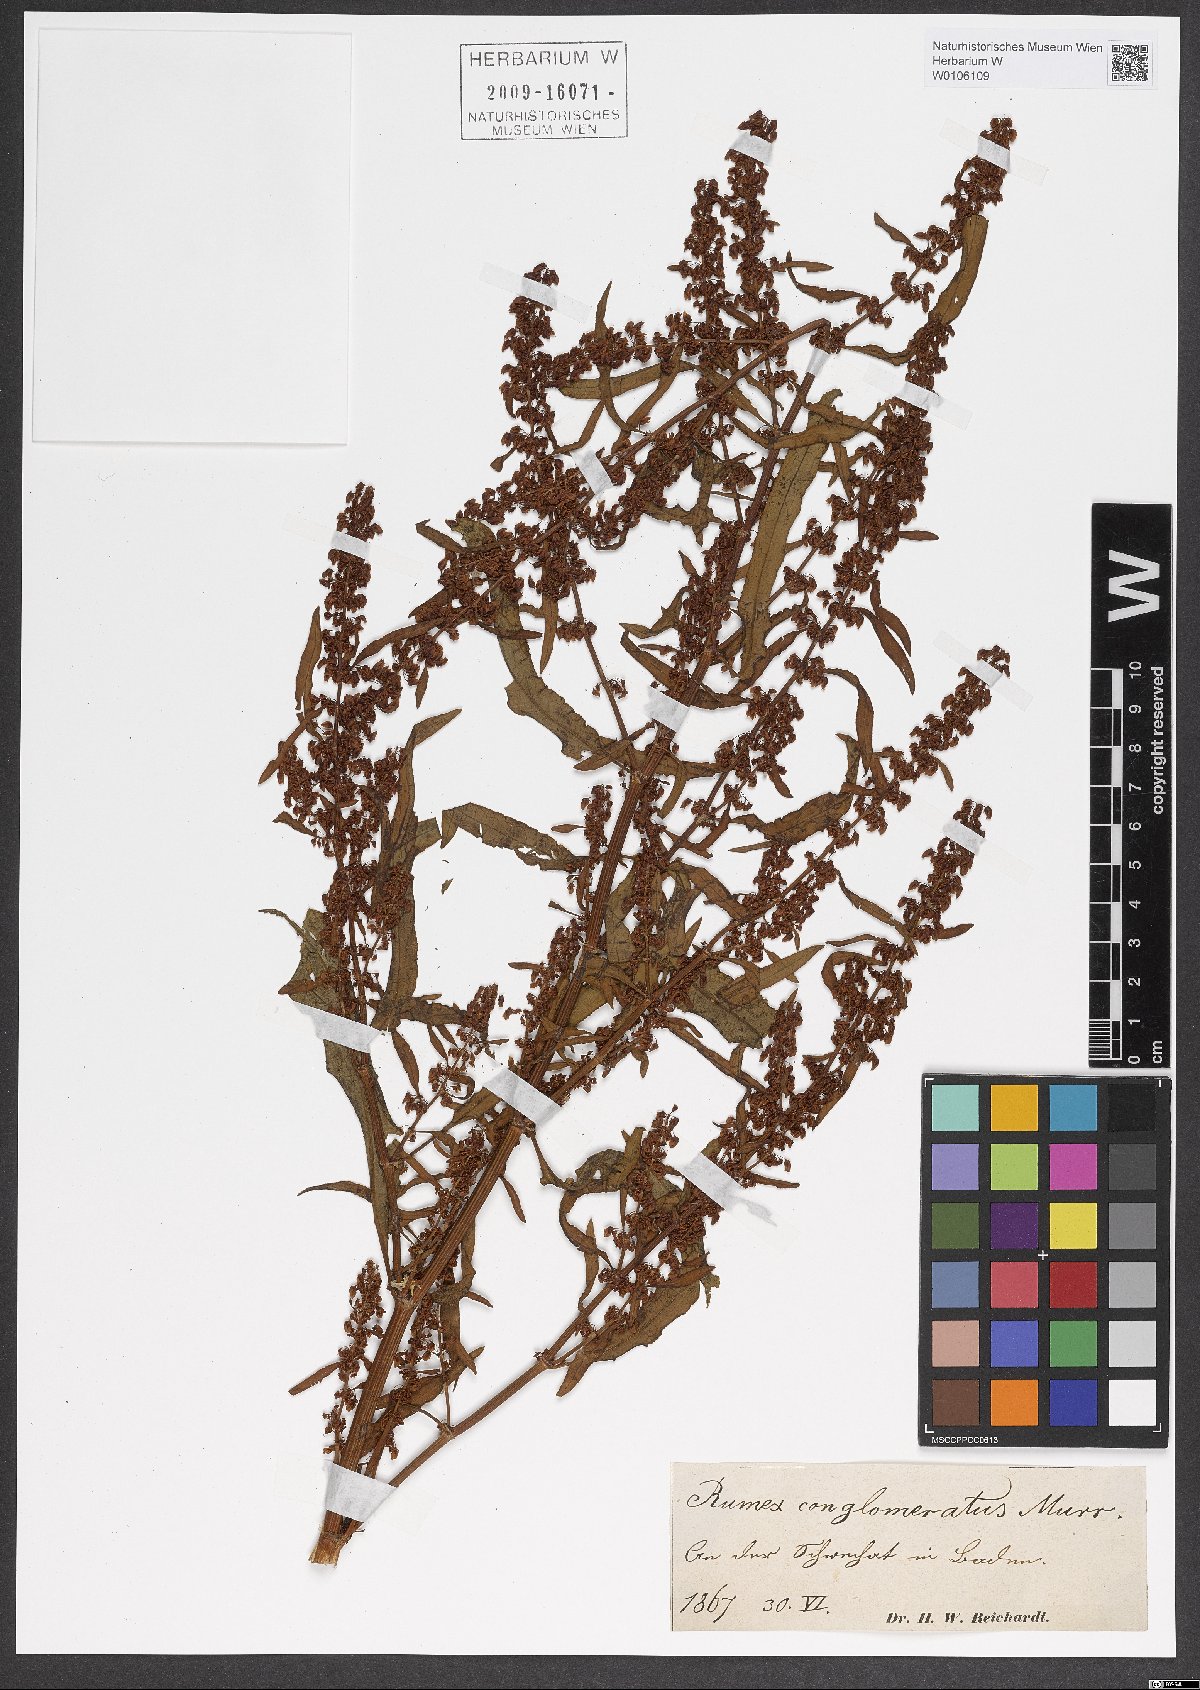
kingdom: Plantae
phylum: Tracheophyta
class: Magnoliopsida
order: Caryophyllales
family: Polygonaceae
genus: Rumex
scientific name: Rumex conglomeratus
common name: Clustered dock
